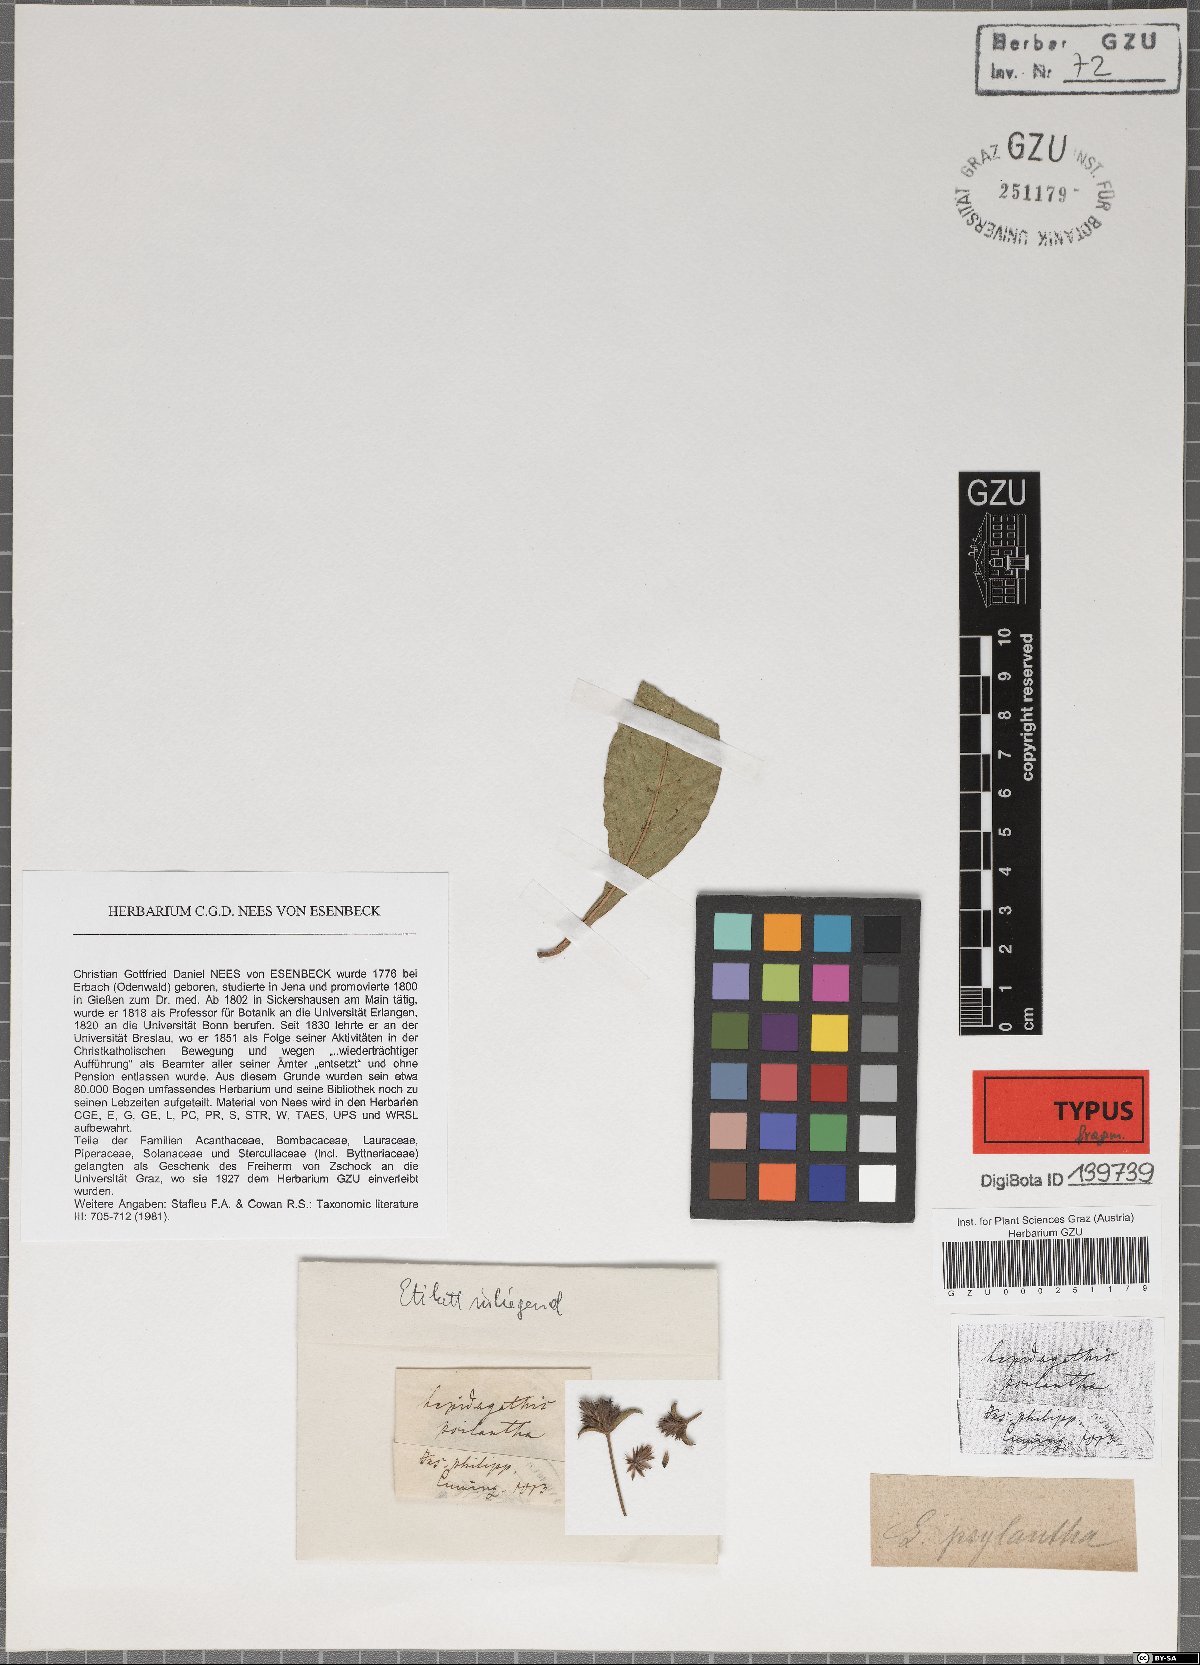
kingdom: Plantae
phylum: Tracheophyta
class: Magnoliopsida
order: Lamiales
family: Acanthaceae
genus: Lepidagathis
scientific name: Lepidagathis psilantha
